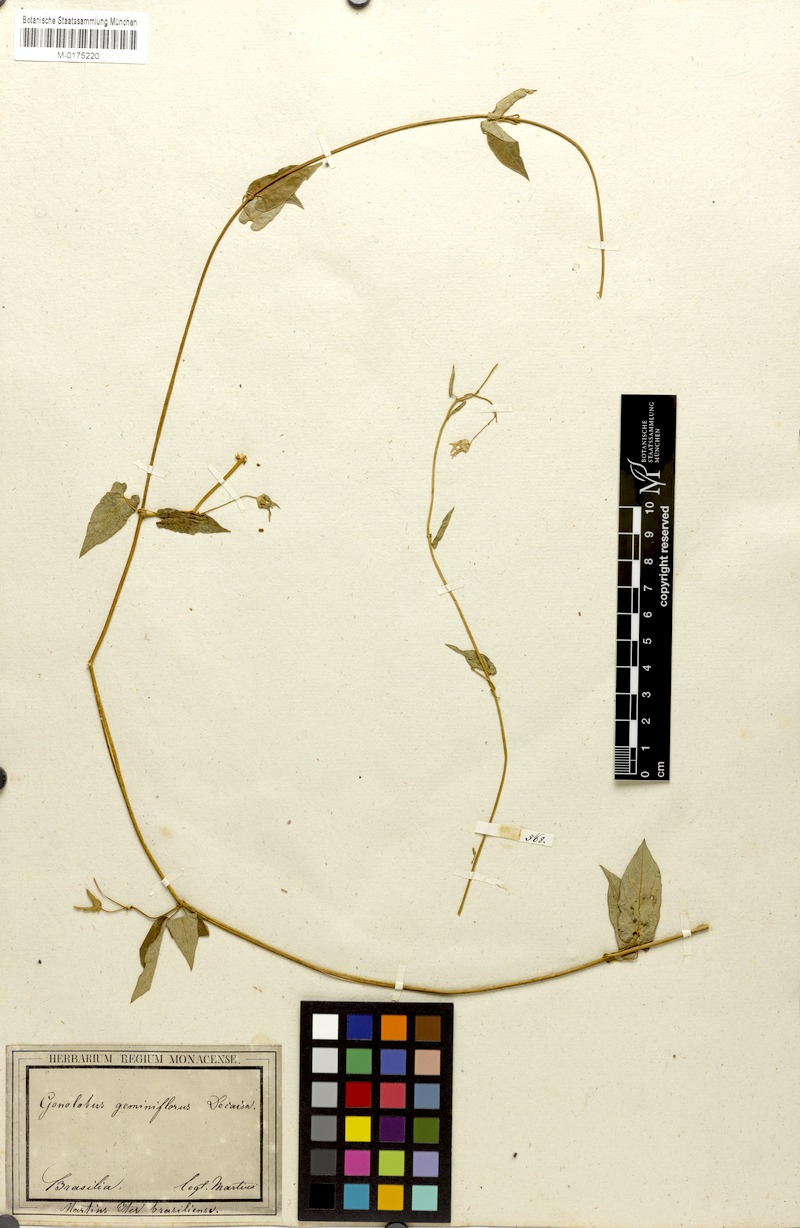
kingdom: Plantae
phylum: Tracheophyta
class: Magnoliopsida
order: Gentianales
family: Apocynaceae
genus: Diplolepis
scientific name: Diplolepis geminiflora
